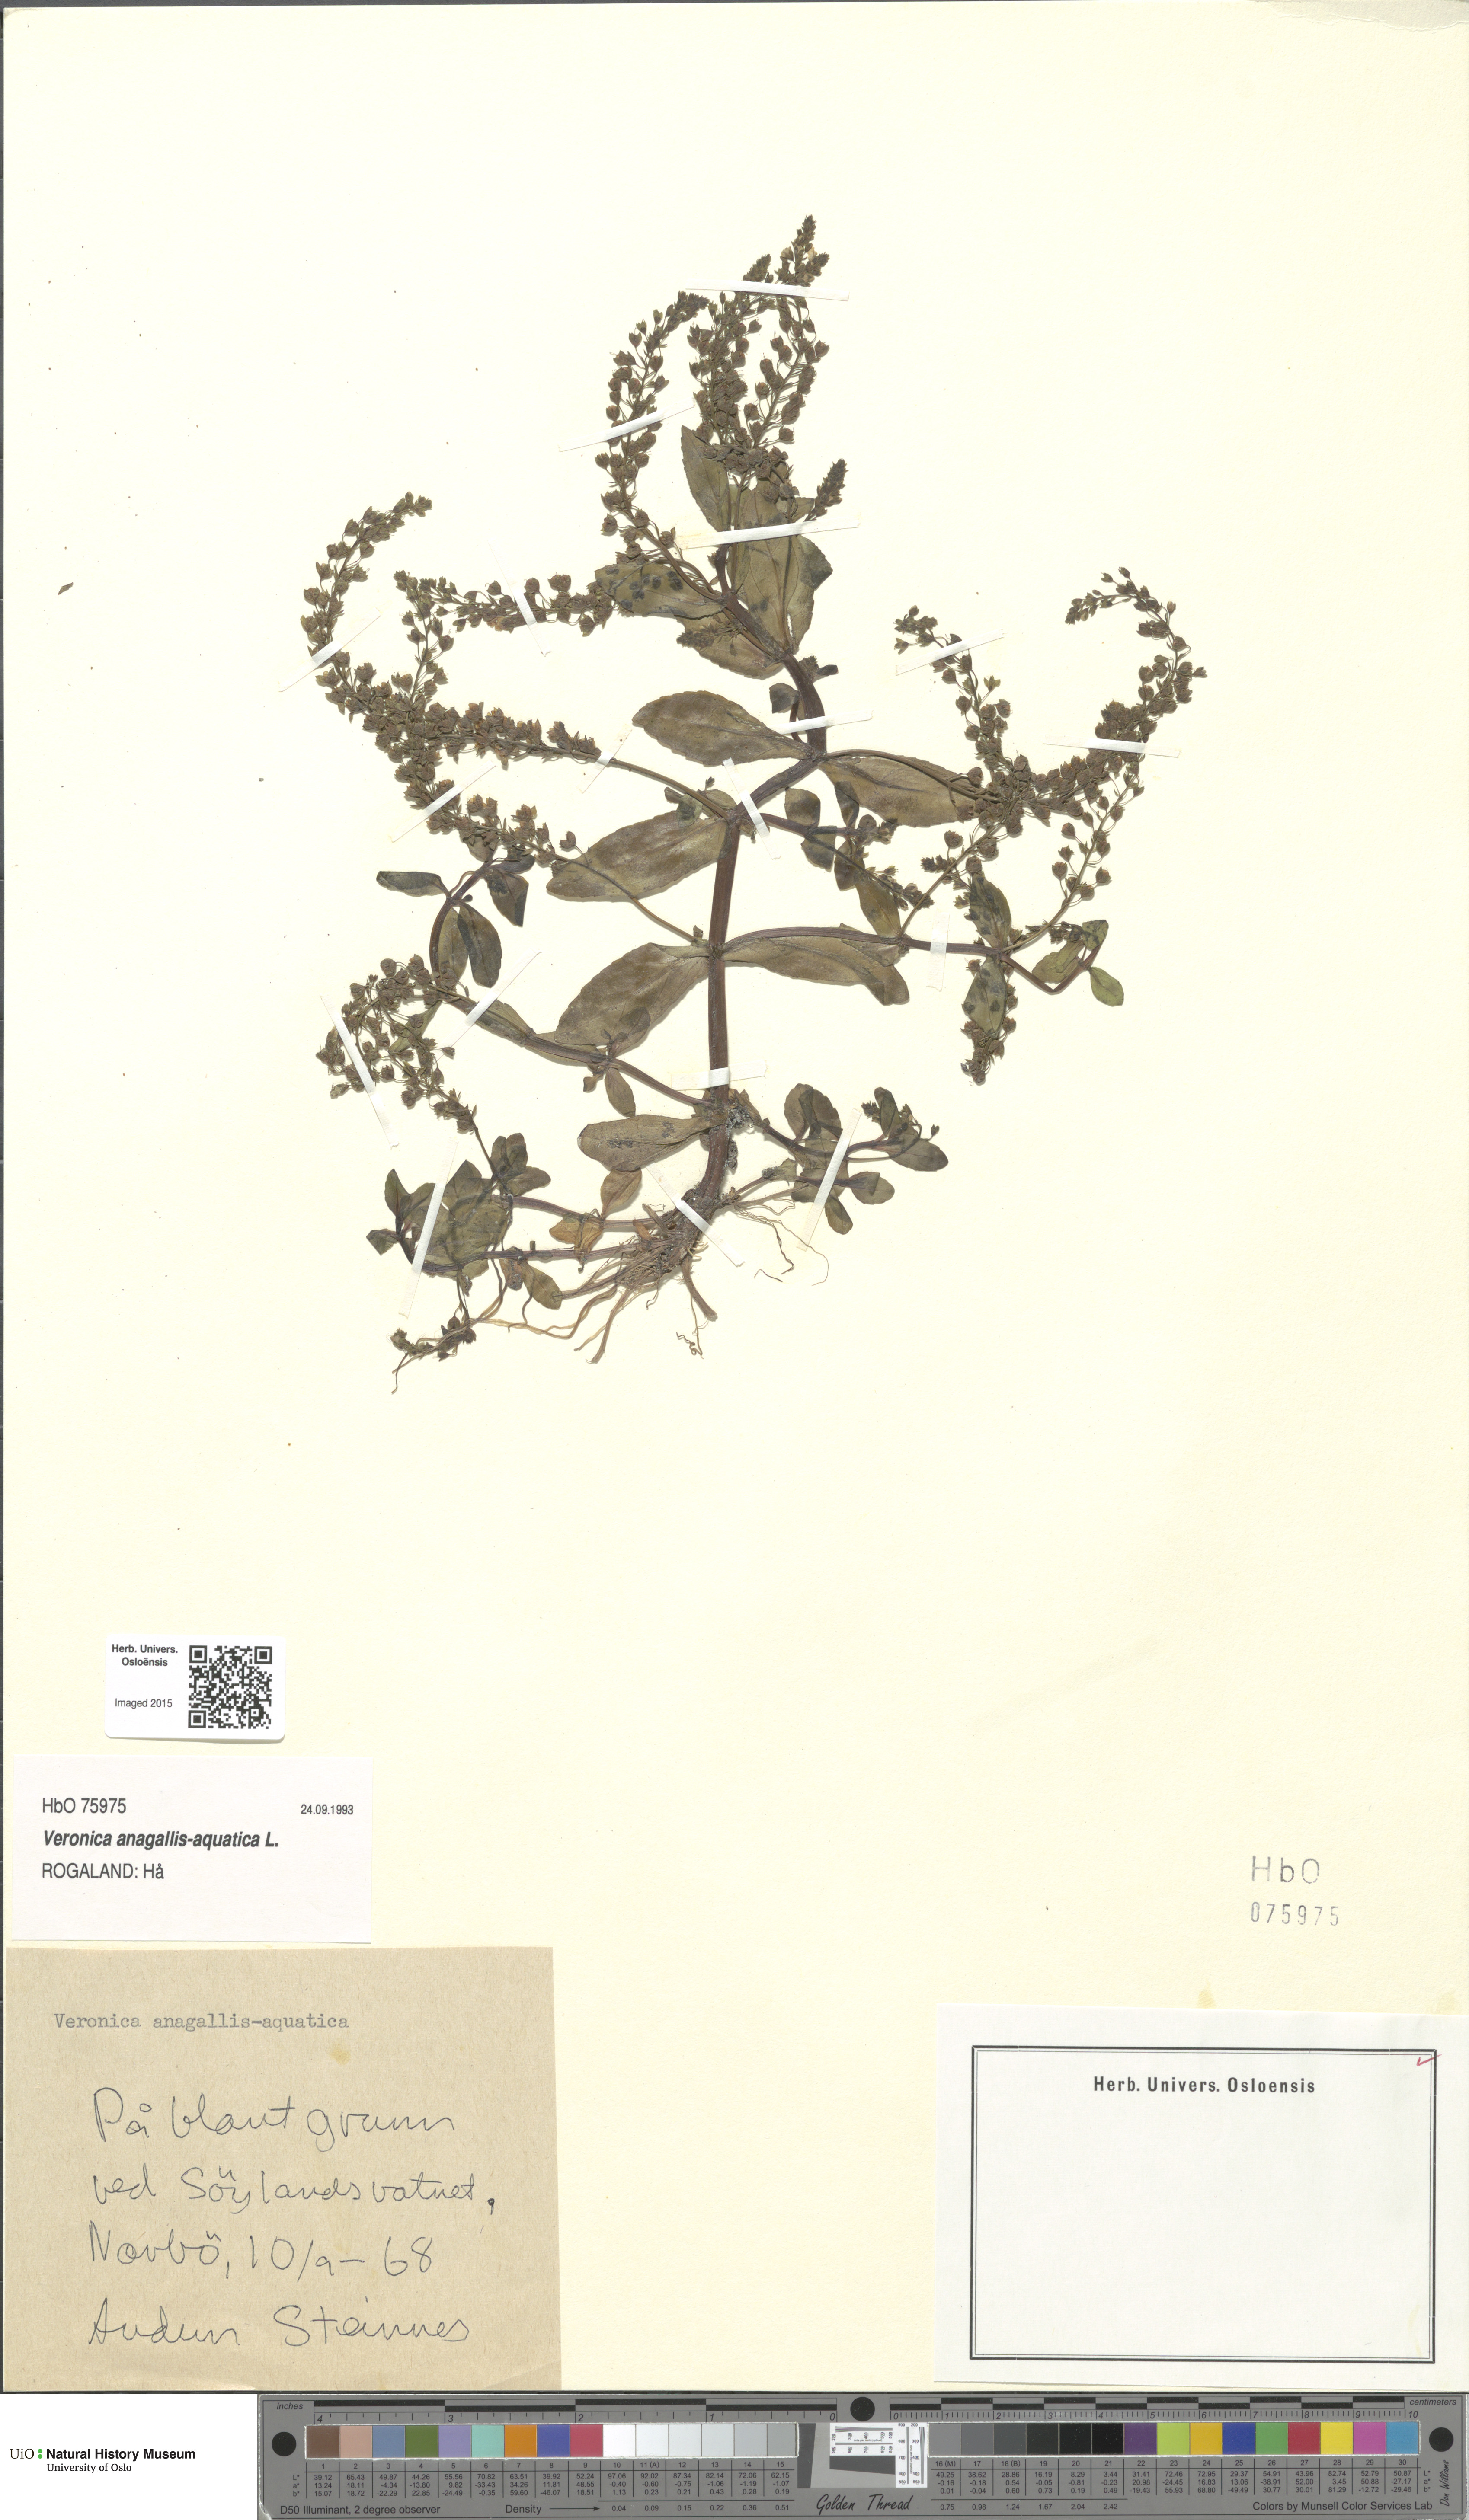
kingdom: Plantae
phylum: Tracheophyta
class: Magnoliopsida
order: Lamiales
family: Plantaginaceae
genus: Veronica
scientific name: Veronica anagallis-aquatica
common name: Water speedwell
